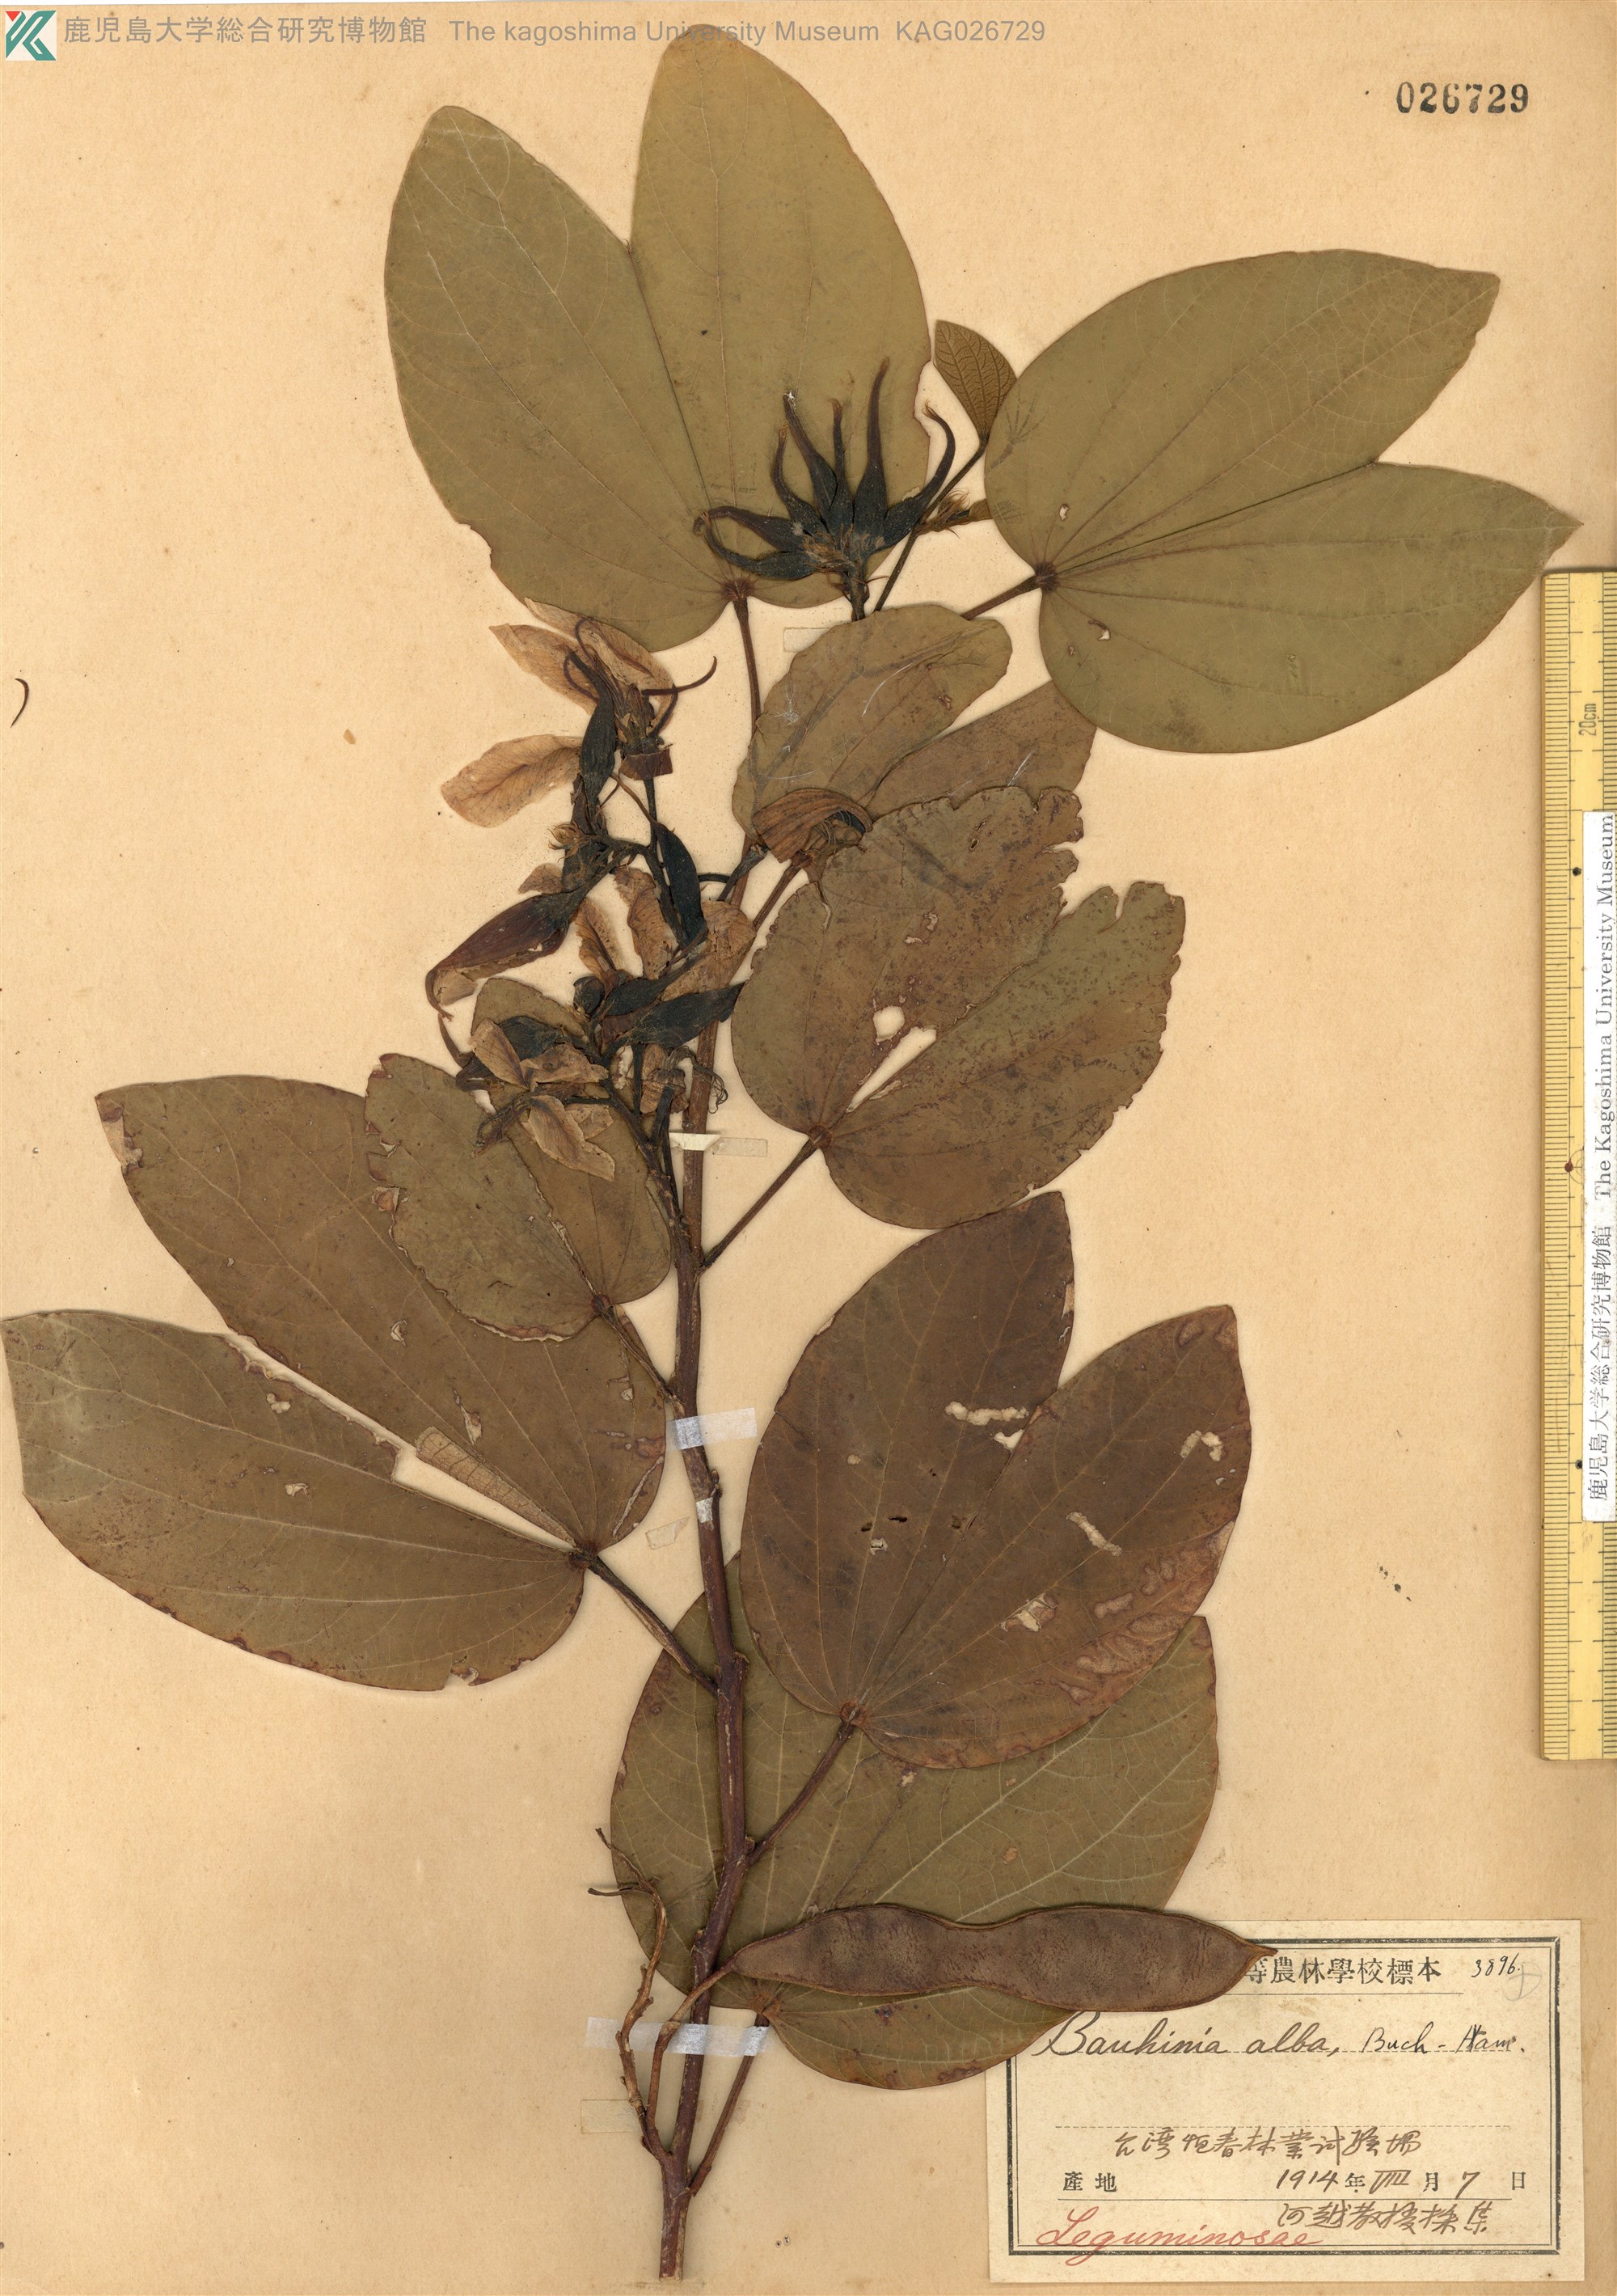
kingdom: Plantae
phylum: Tracheophyta
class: Magnoliopsida
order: Fabales
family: Fabaceae
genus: Bauhinia
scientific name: Bauhinia variegata
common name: Mountain ebony
